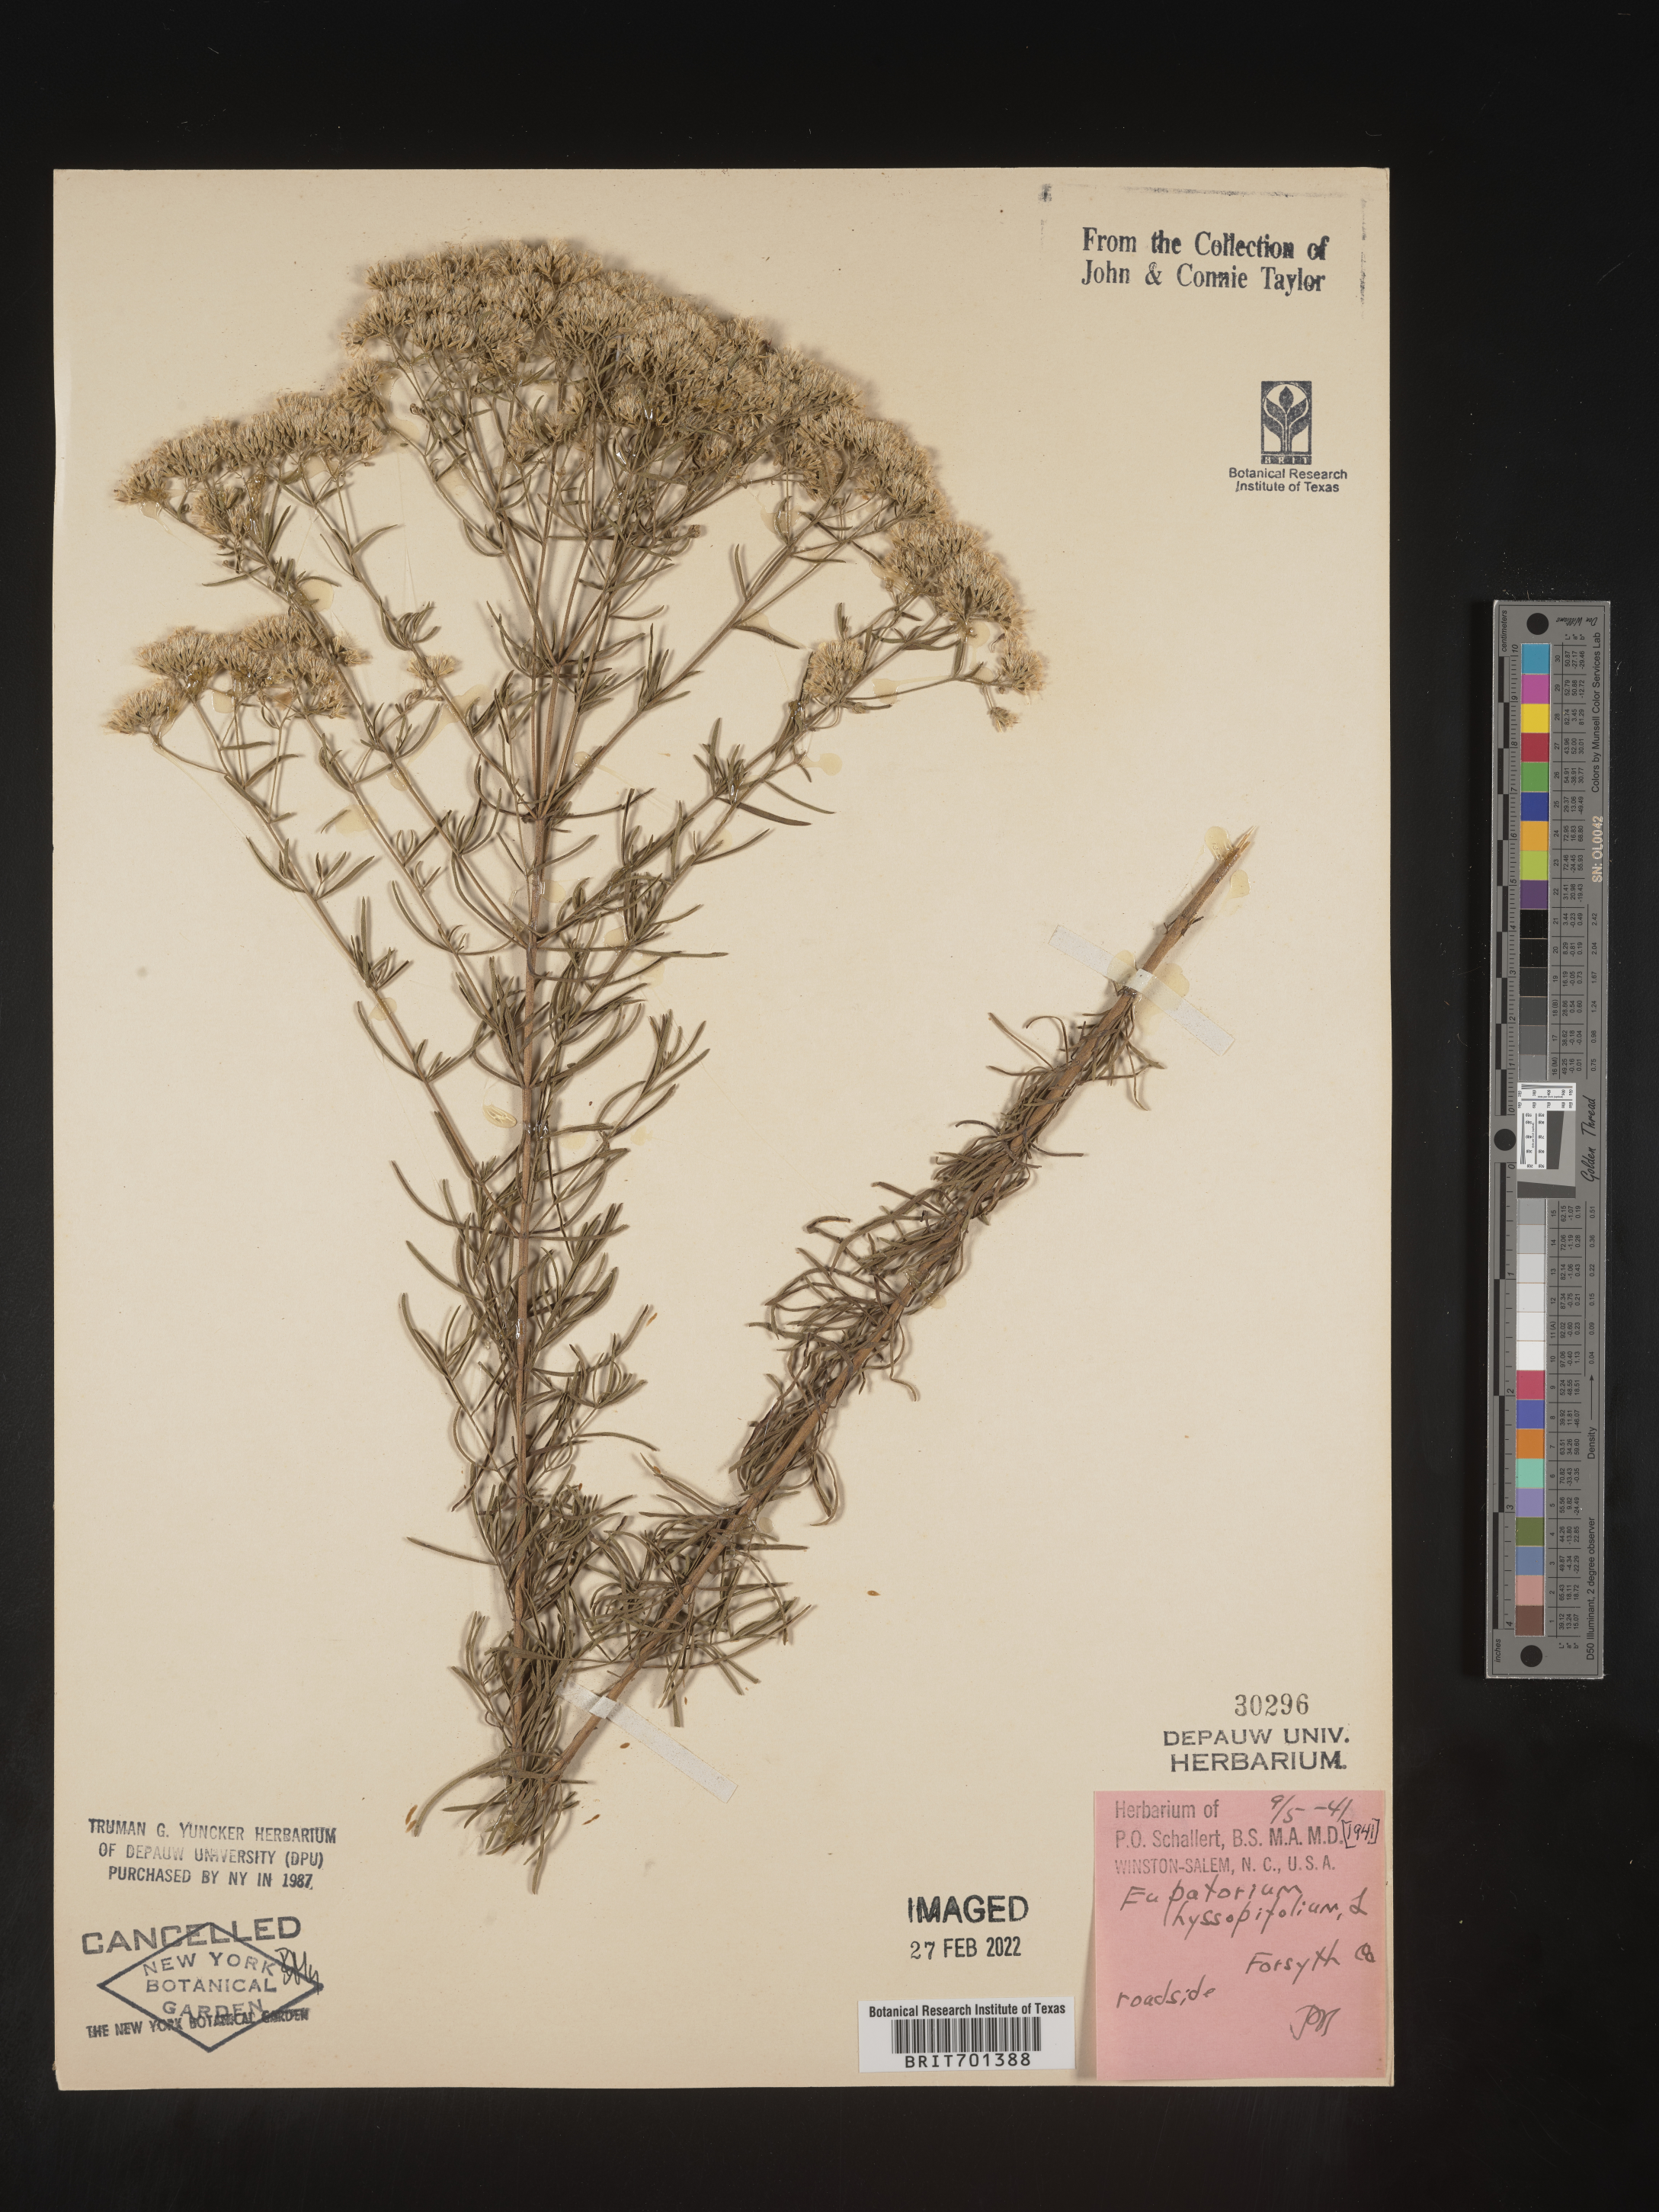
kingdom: Plantae
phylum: Tracheophyta
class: Magnoliopsida
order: Asterales
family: Asteraceae
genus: Eupatorium
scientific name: Eupatorium hyssopifolium
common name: Hyssop-leaf thoroughwort
